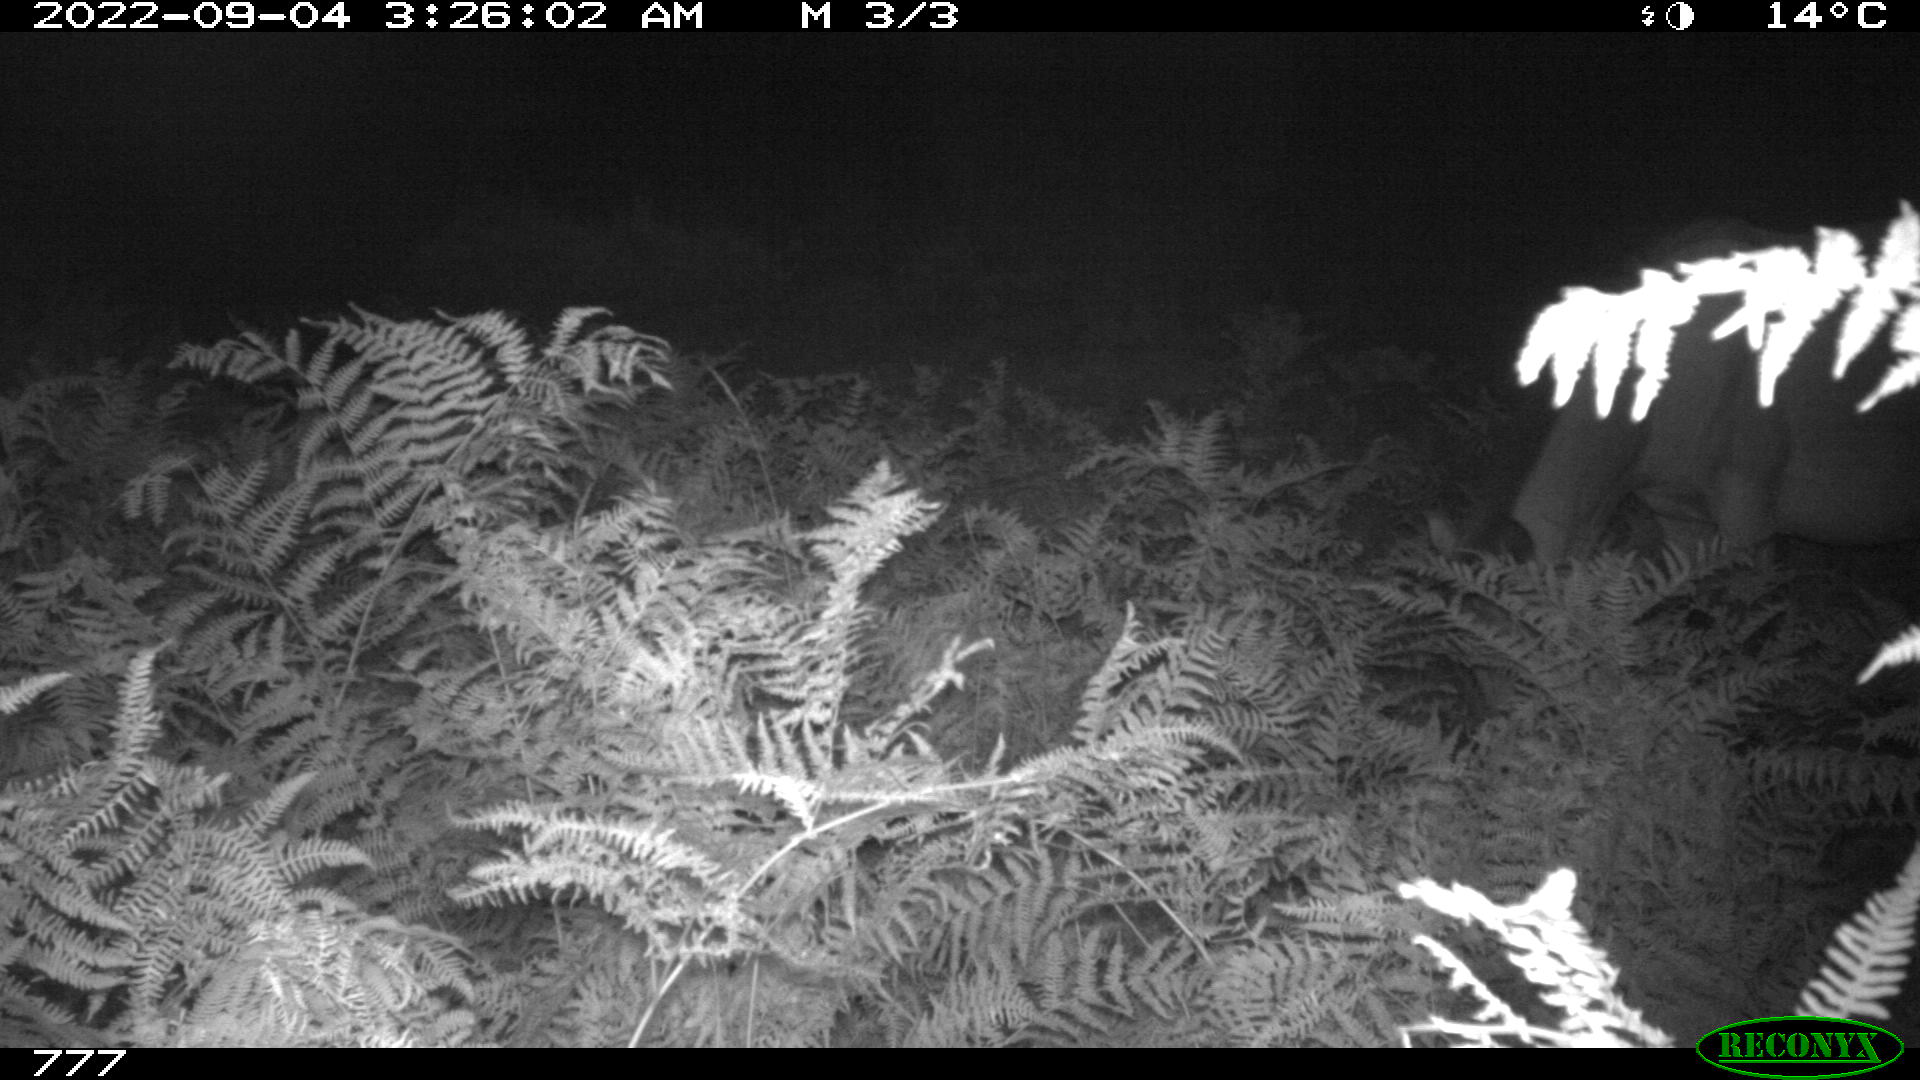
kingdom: Animalia
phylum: Chordata
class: Mammalia
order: Perissodactyla
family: Equidae
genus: Equus
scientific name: Equus caballus
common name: Horse
